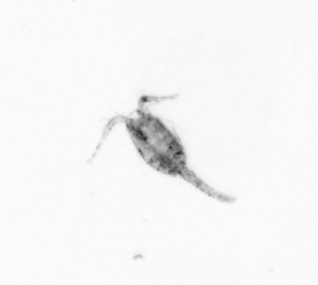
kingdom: Animalia
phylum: Arthropoda
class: Copepoda
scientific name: Copepoda
